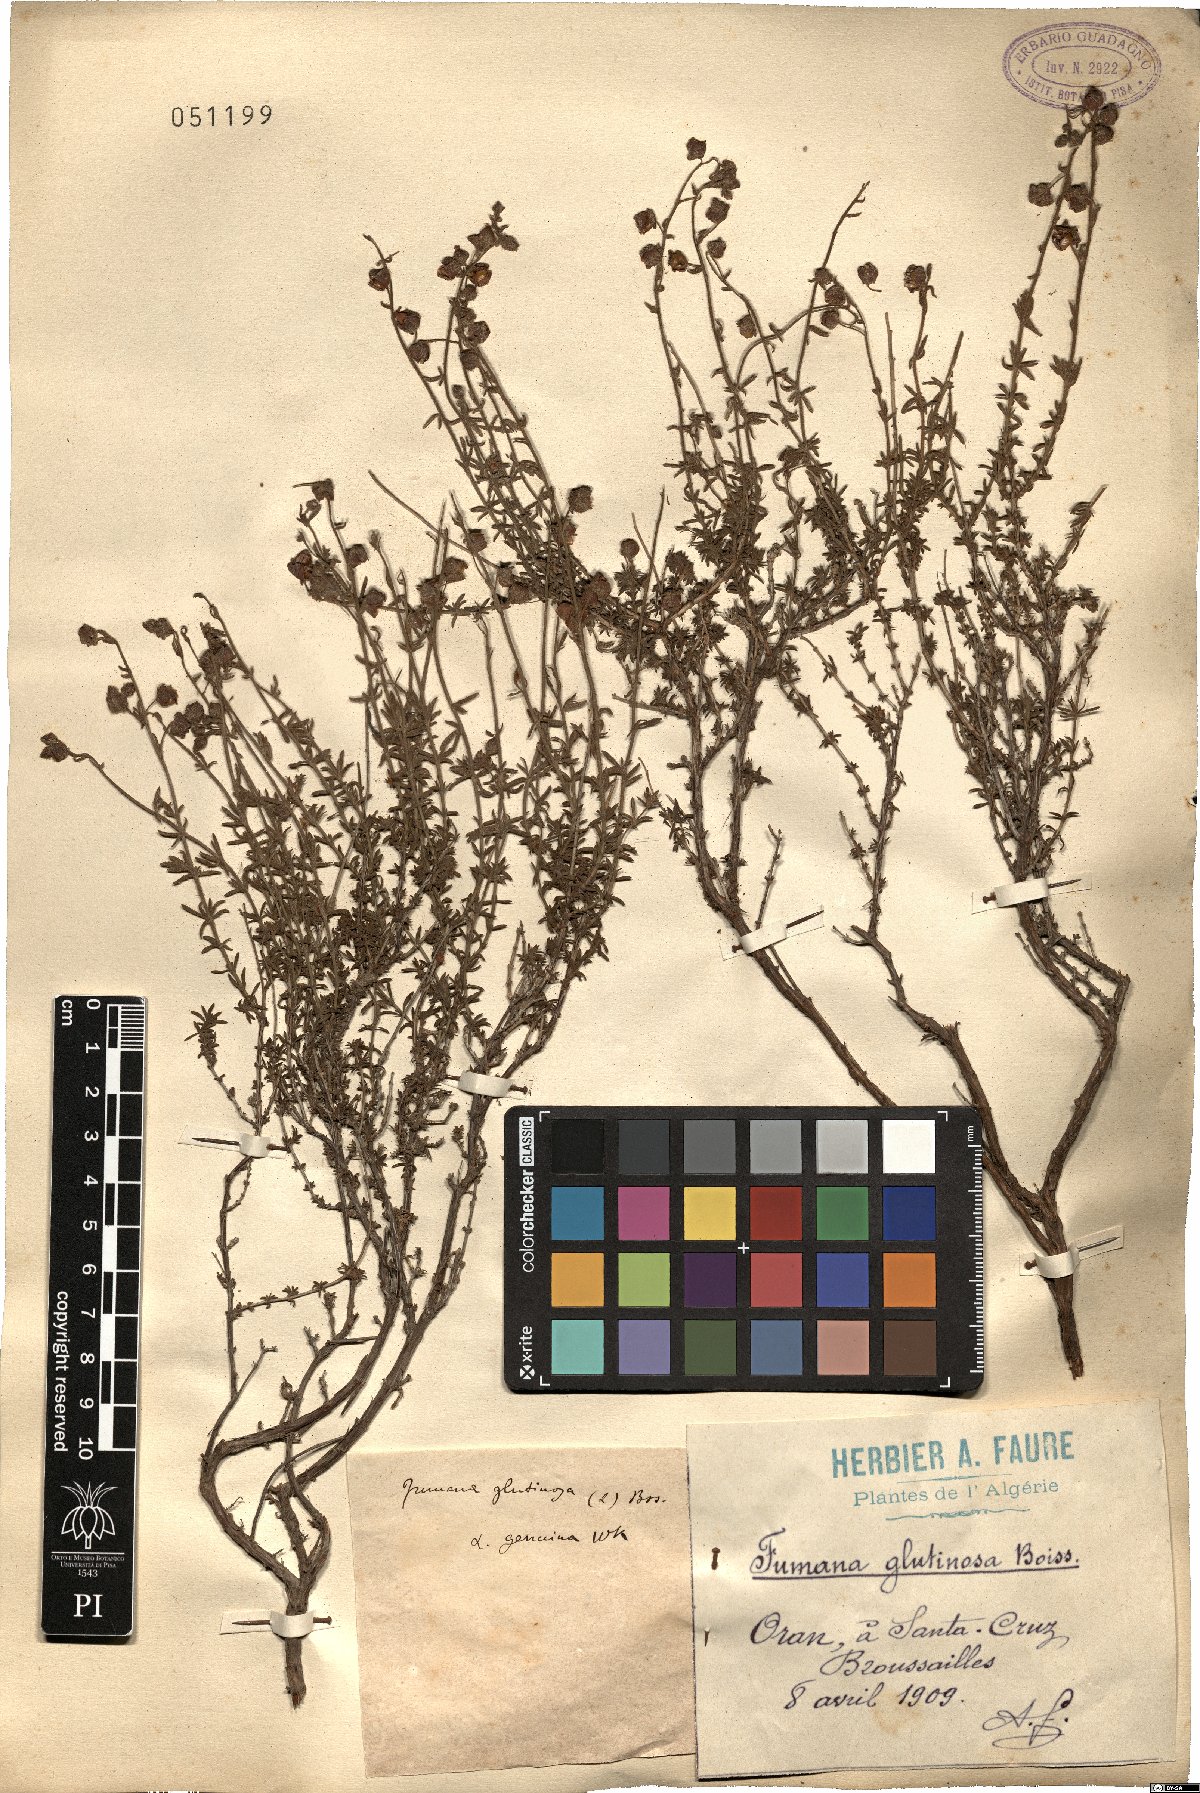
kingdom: Plantae
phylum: Tracheophyta
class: Magnoliopsida
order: Malvales
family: Cistaceae
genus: Fumana
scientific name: Fumana thymifolia
